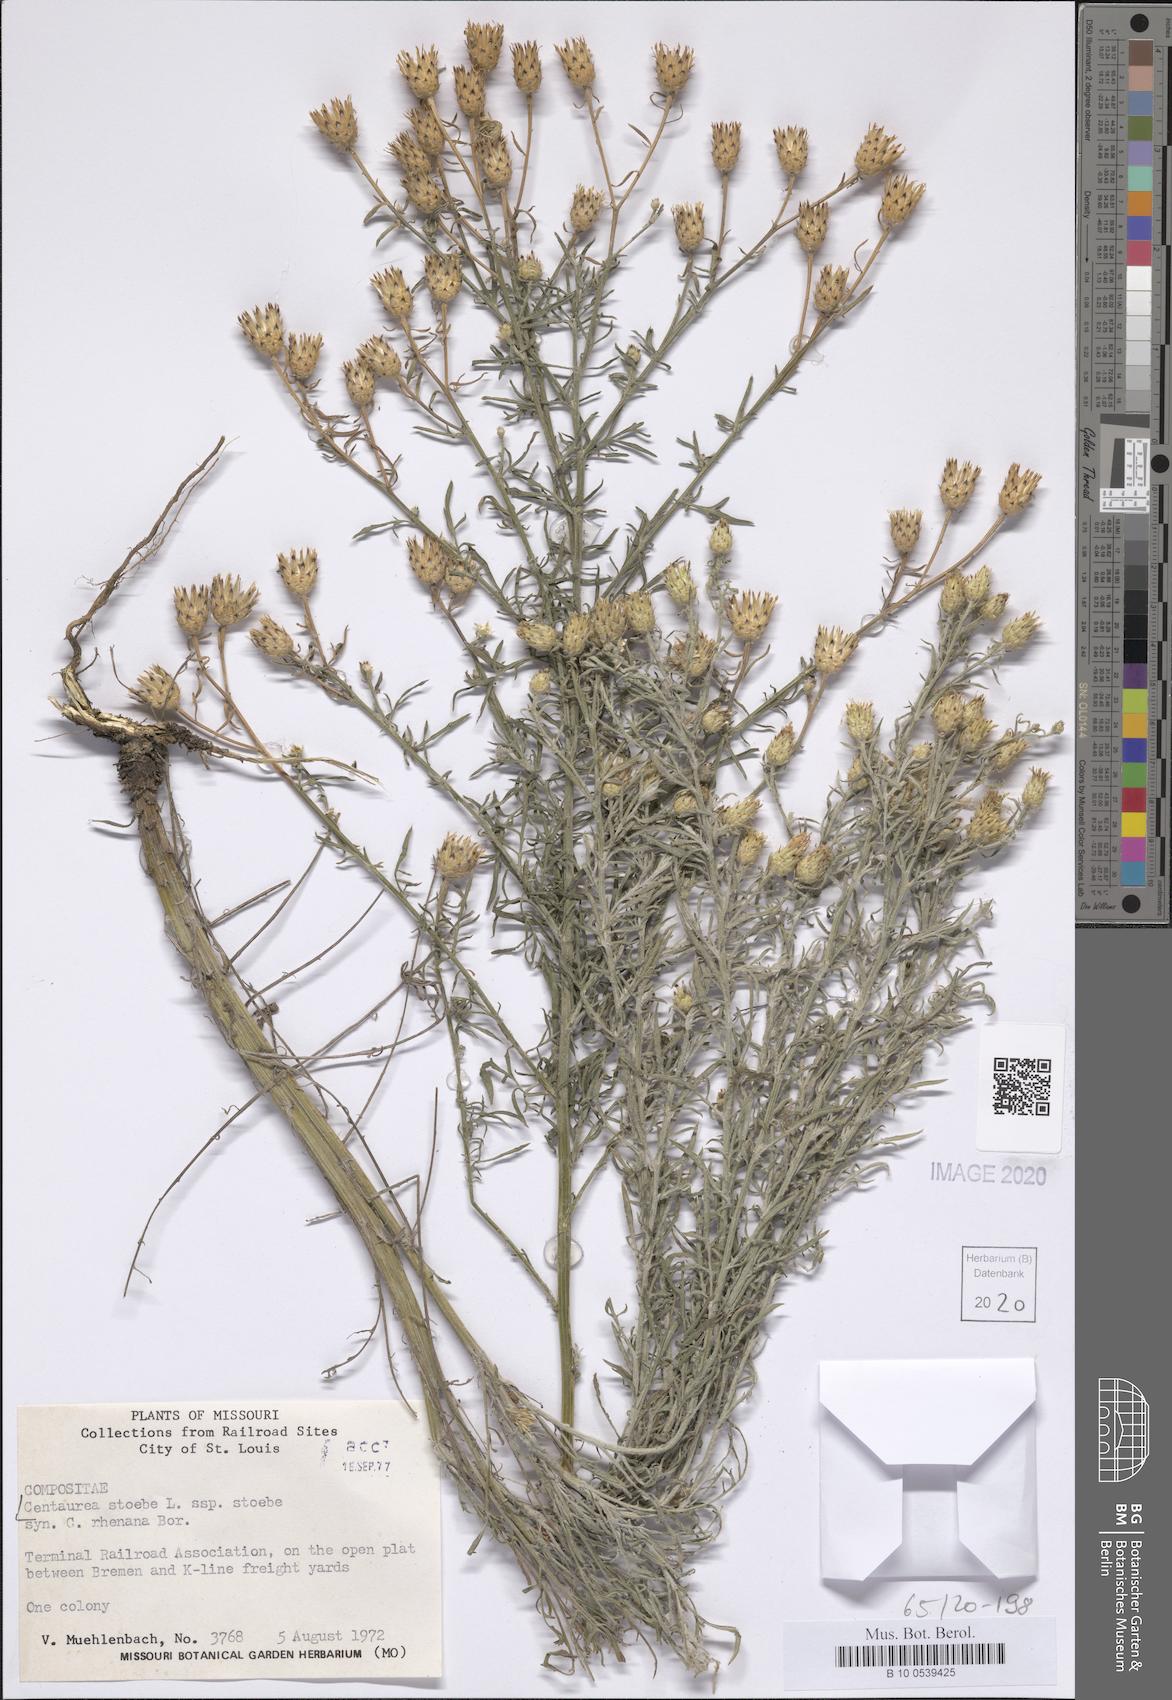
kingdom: Plantae
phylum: Tracheophyta
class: Magnoliopsida
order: Asterales
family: Asteraceae
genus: Centaurea
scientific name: Centaurea stoebe
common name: Spotted knapweed
